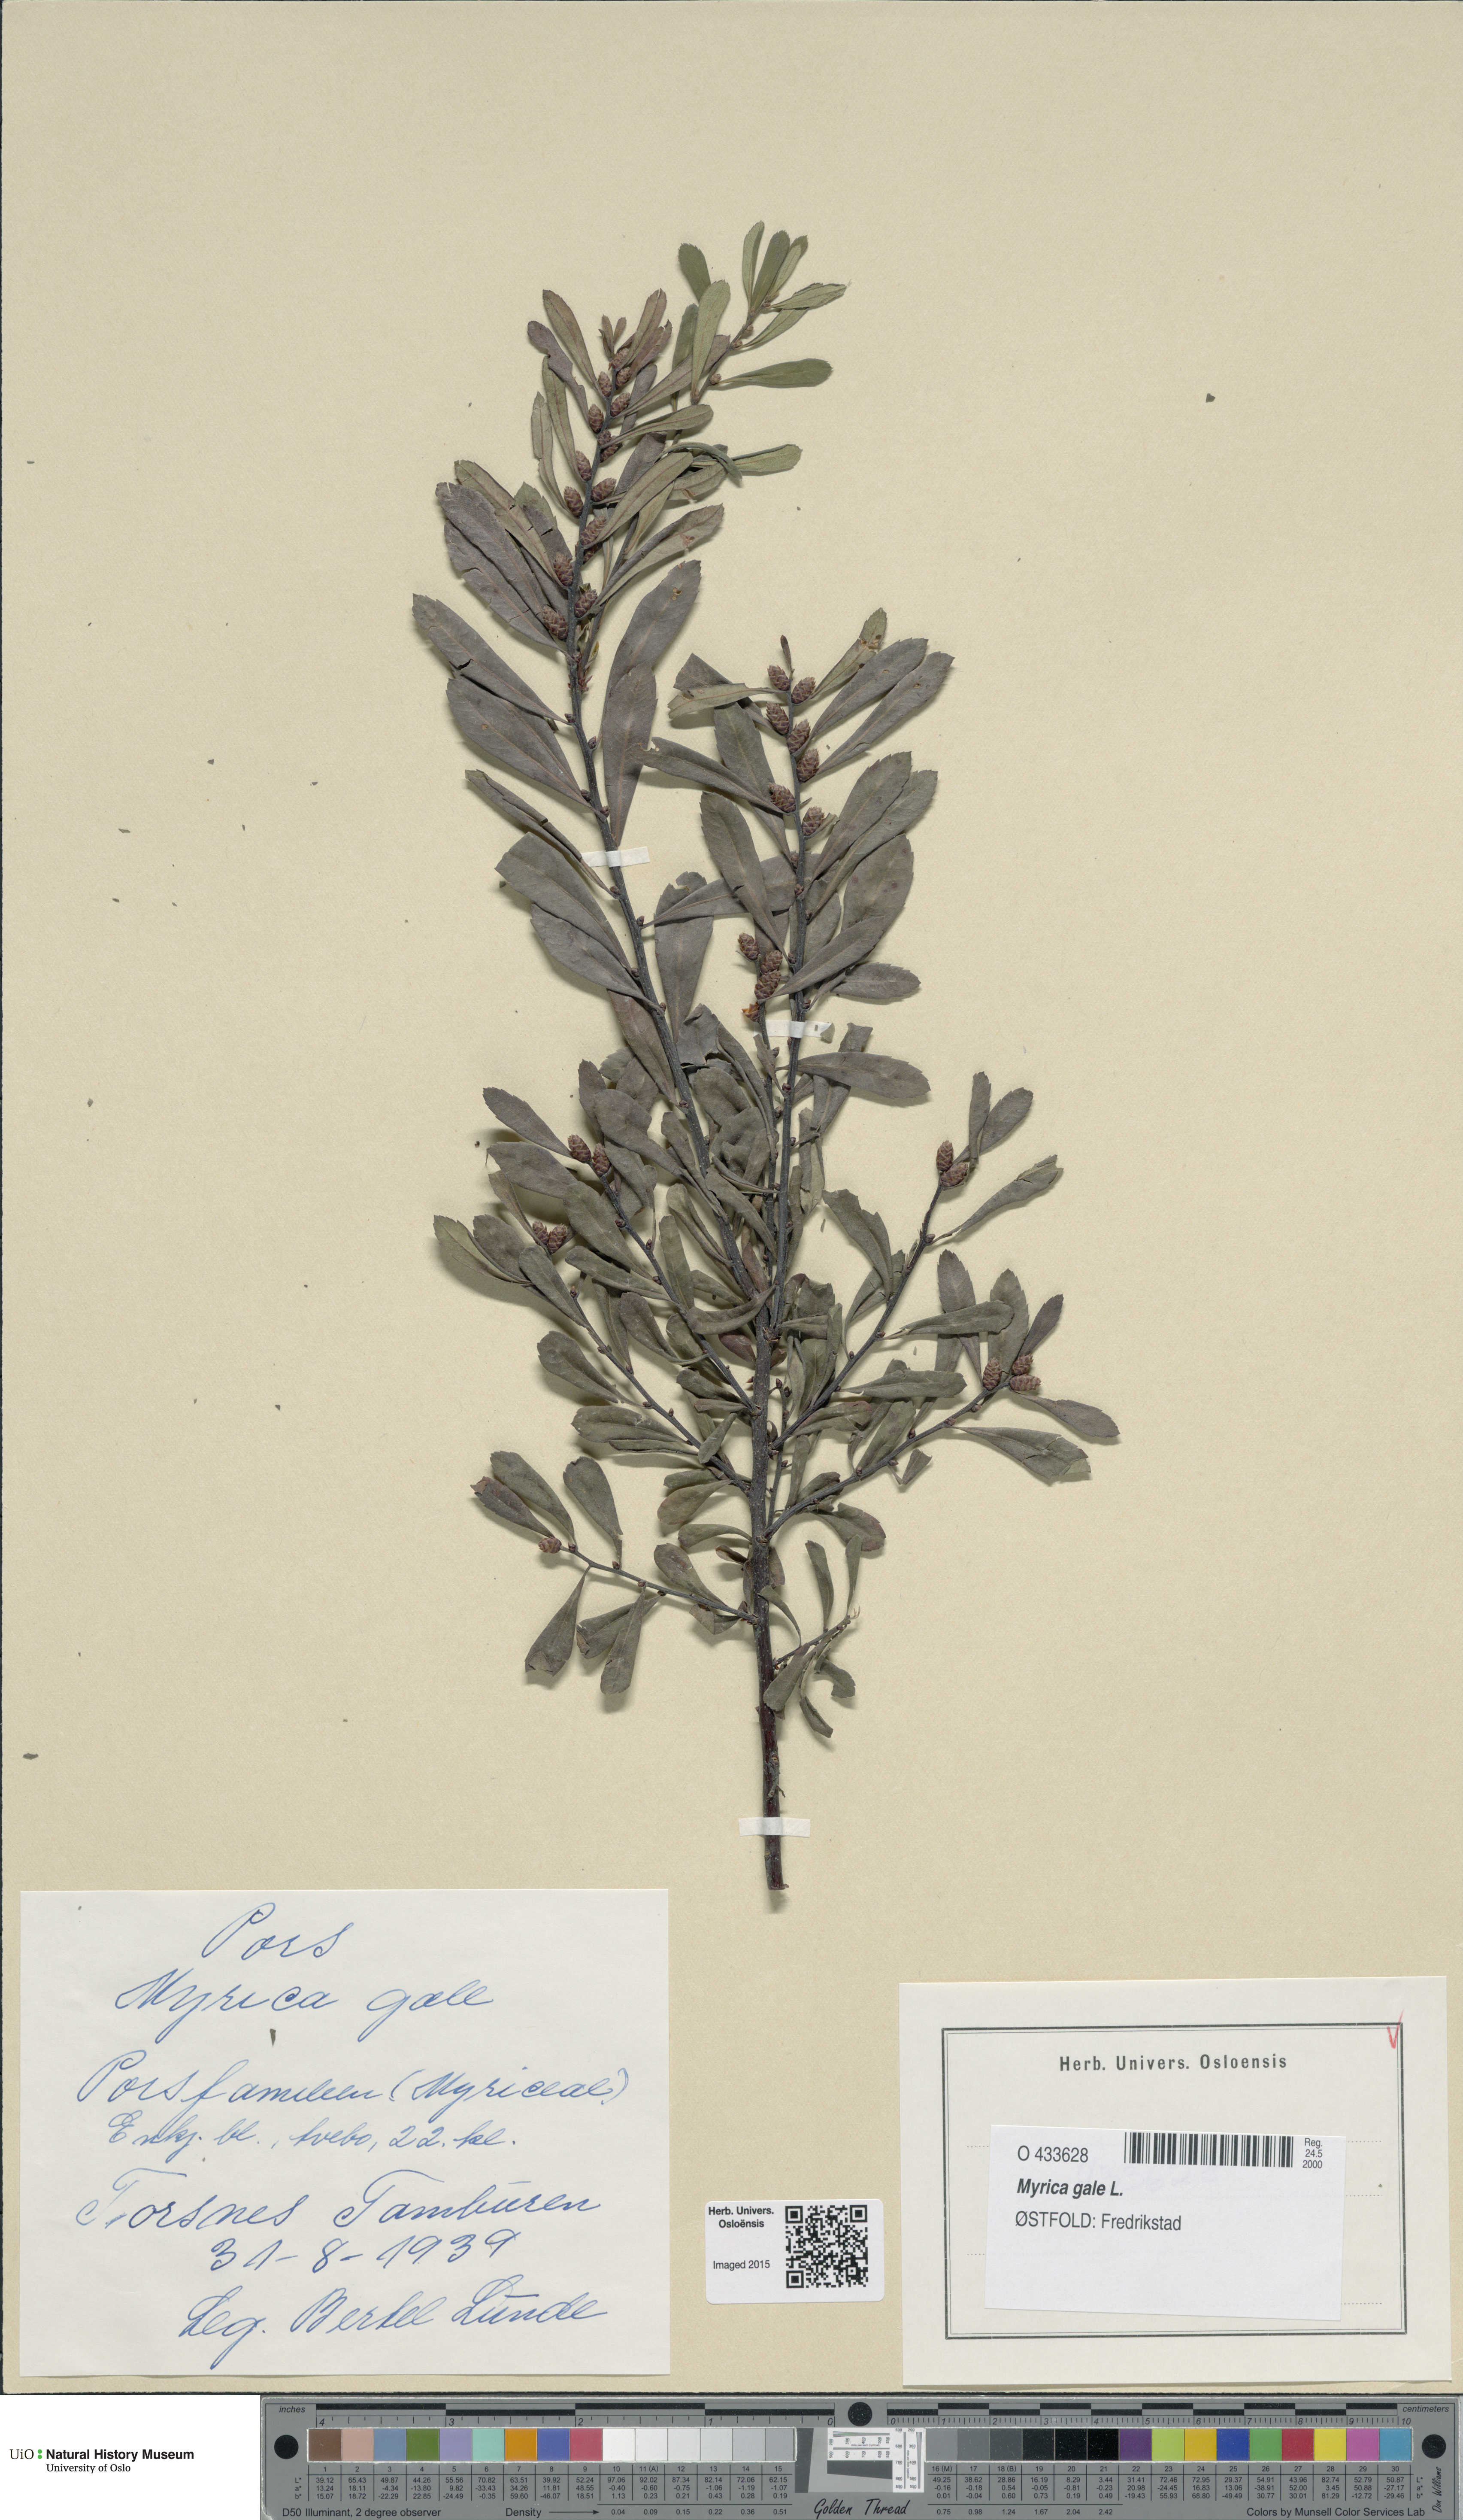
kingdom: Plantae
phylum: Tracheophyta
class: Magnoliopsida
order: Fagales
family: Myricaceae
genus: Myrica
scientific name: Myrica gale
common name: Sweet gale
